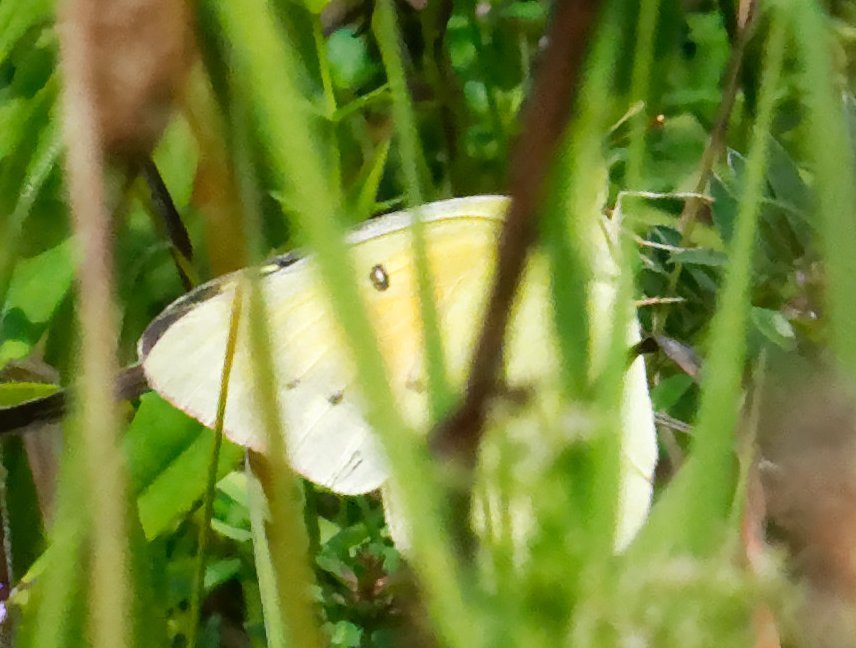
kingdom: Animalia
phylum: Arthropoda
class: Insecta
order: Lepidoptera
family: Pieridae
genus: Colias
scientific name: Colias eurytheme
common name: Orange Sulphur
